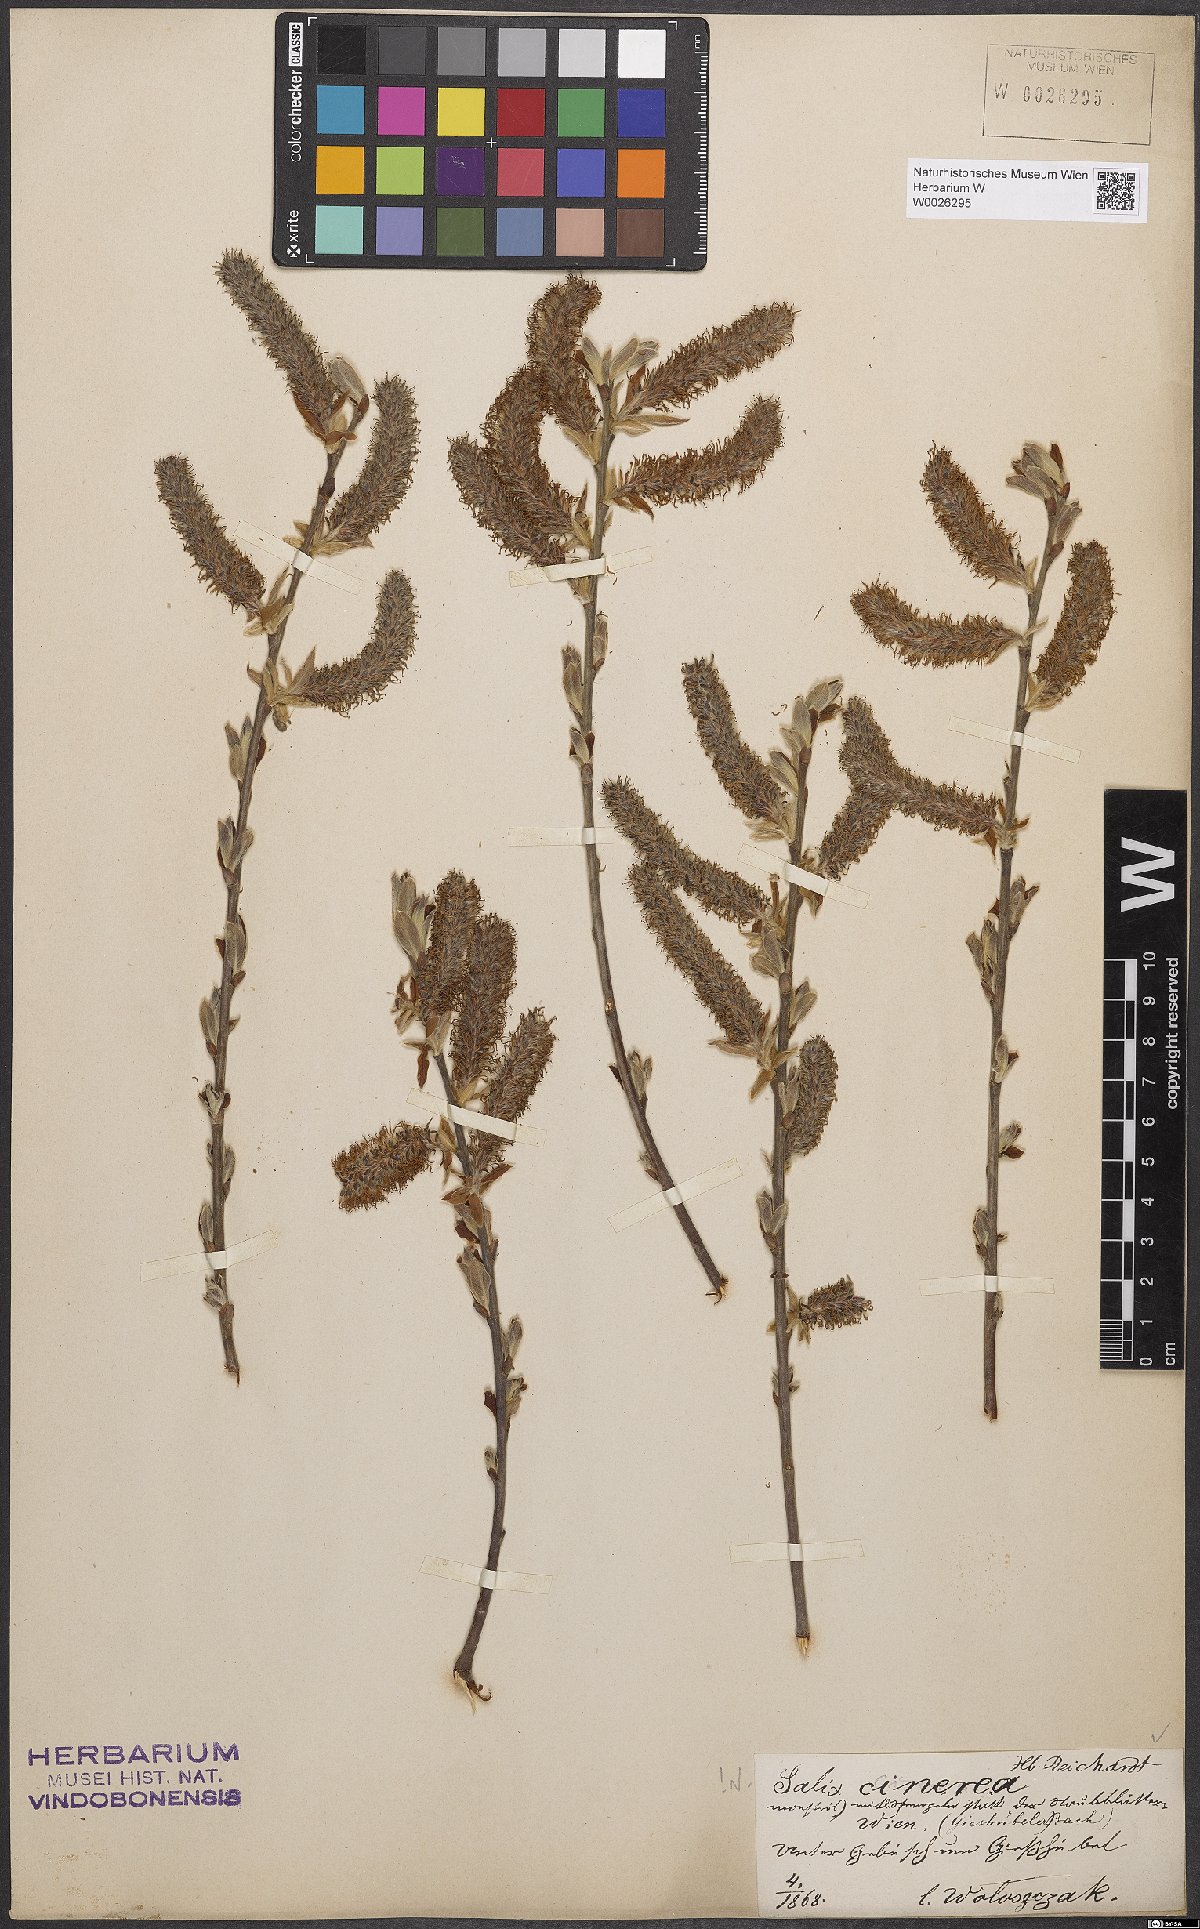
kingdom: Plantae
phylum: Tracheophyta
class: Magnoliopsida
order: Malpighiales
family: Salicaceae
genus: Salix
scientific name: Salix cinerea
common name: Common sallow
